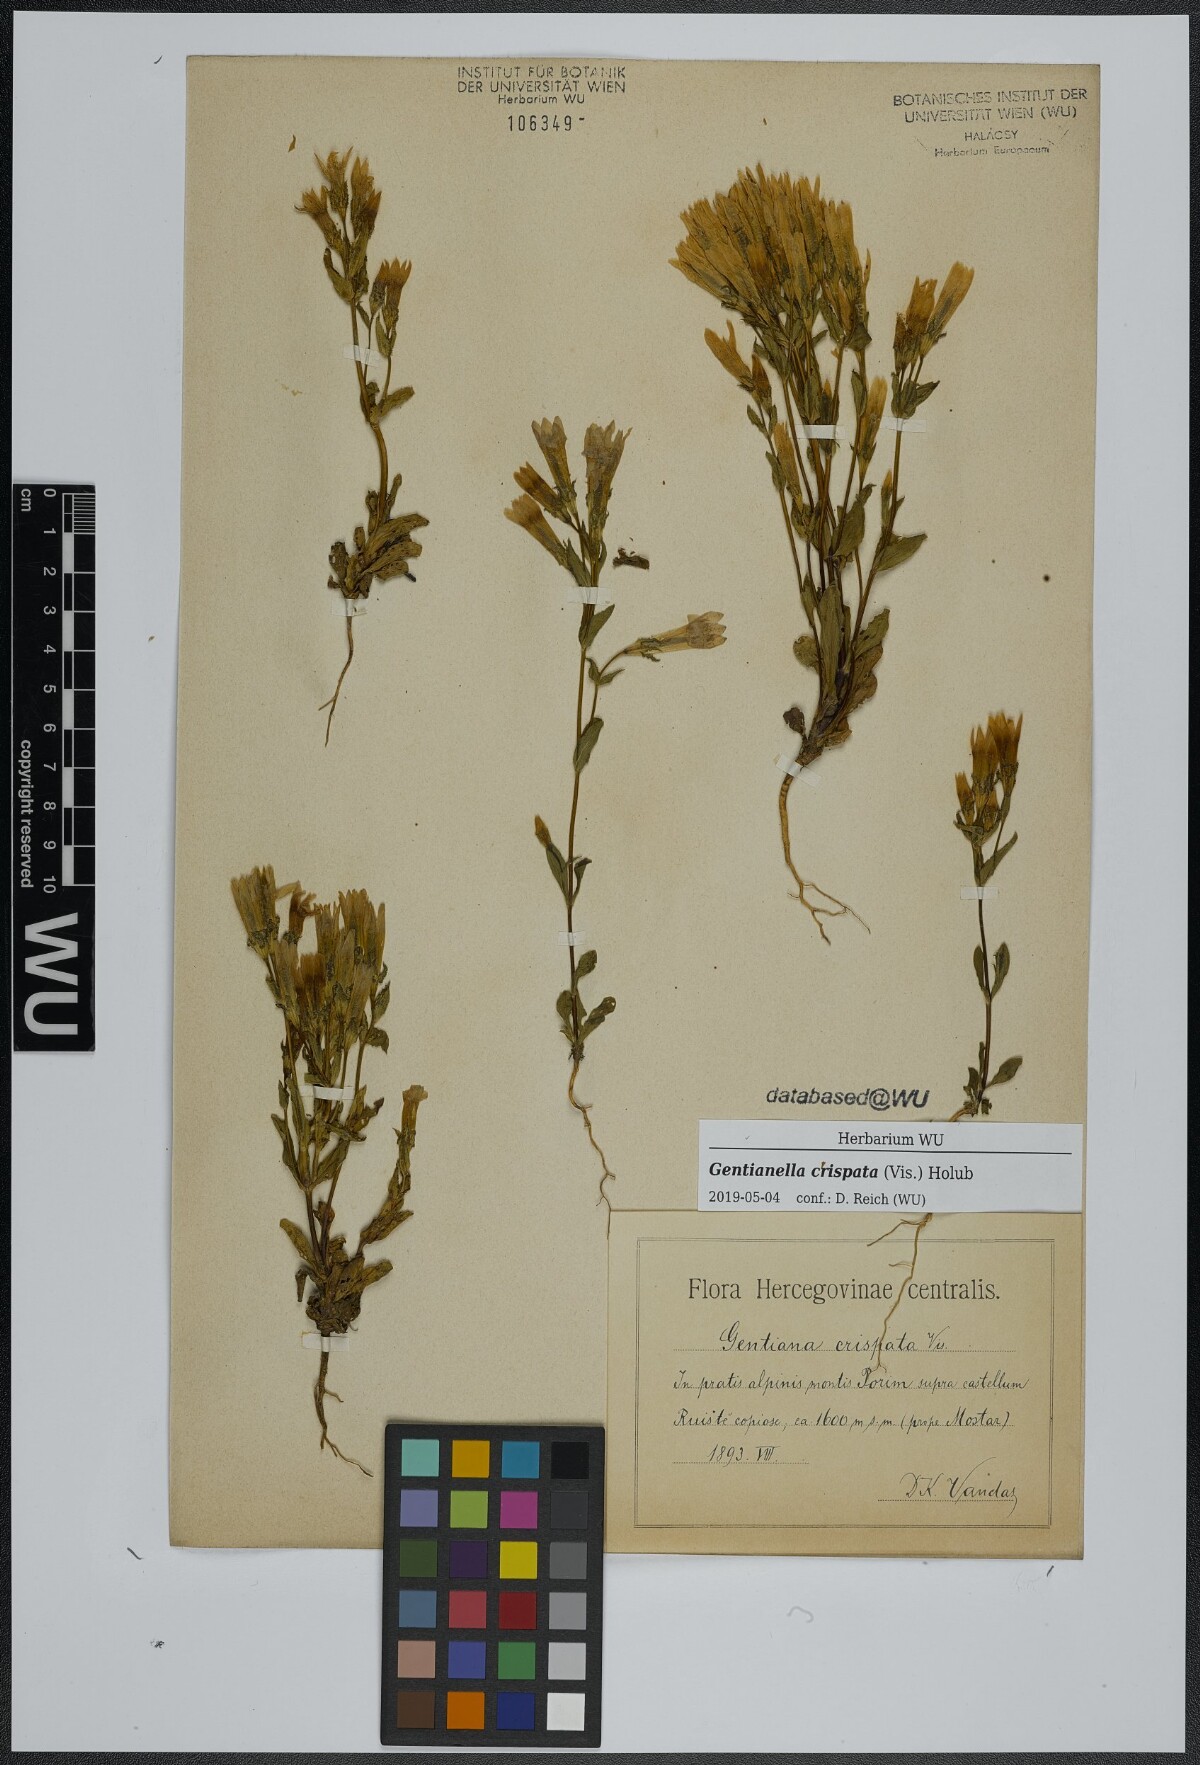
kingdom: Plantae
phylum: Tracheophyta
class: Magnoliopsida
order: Gentianales
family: Gentianaceae
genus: Gentianella
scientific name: Gentianella crispata
